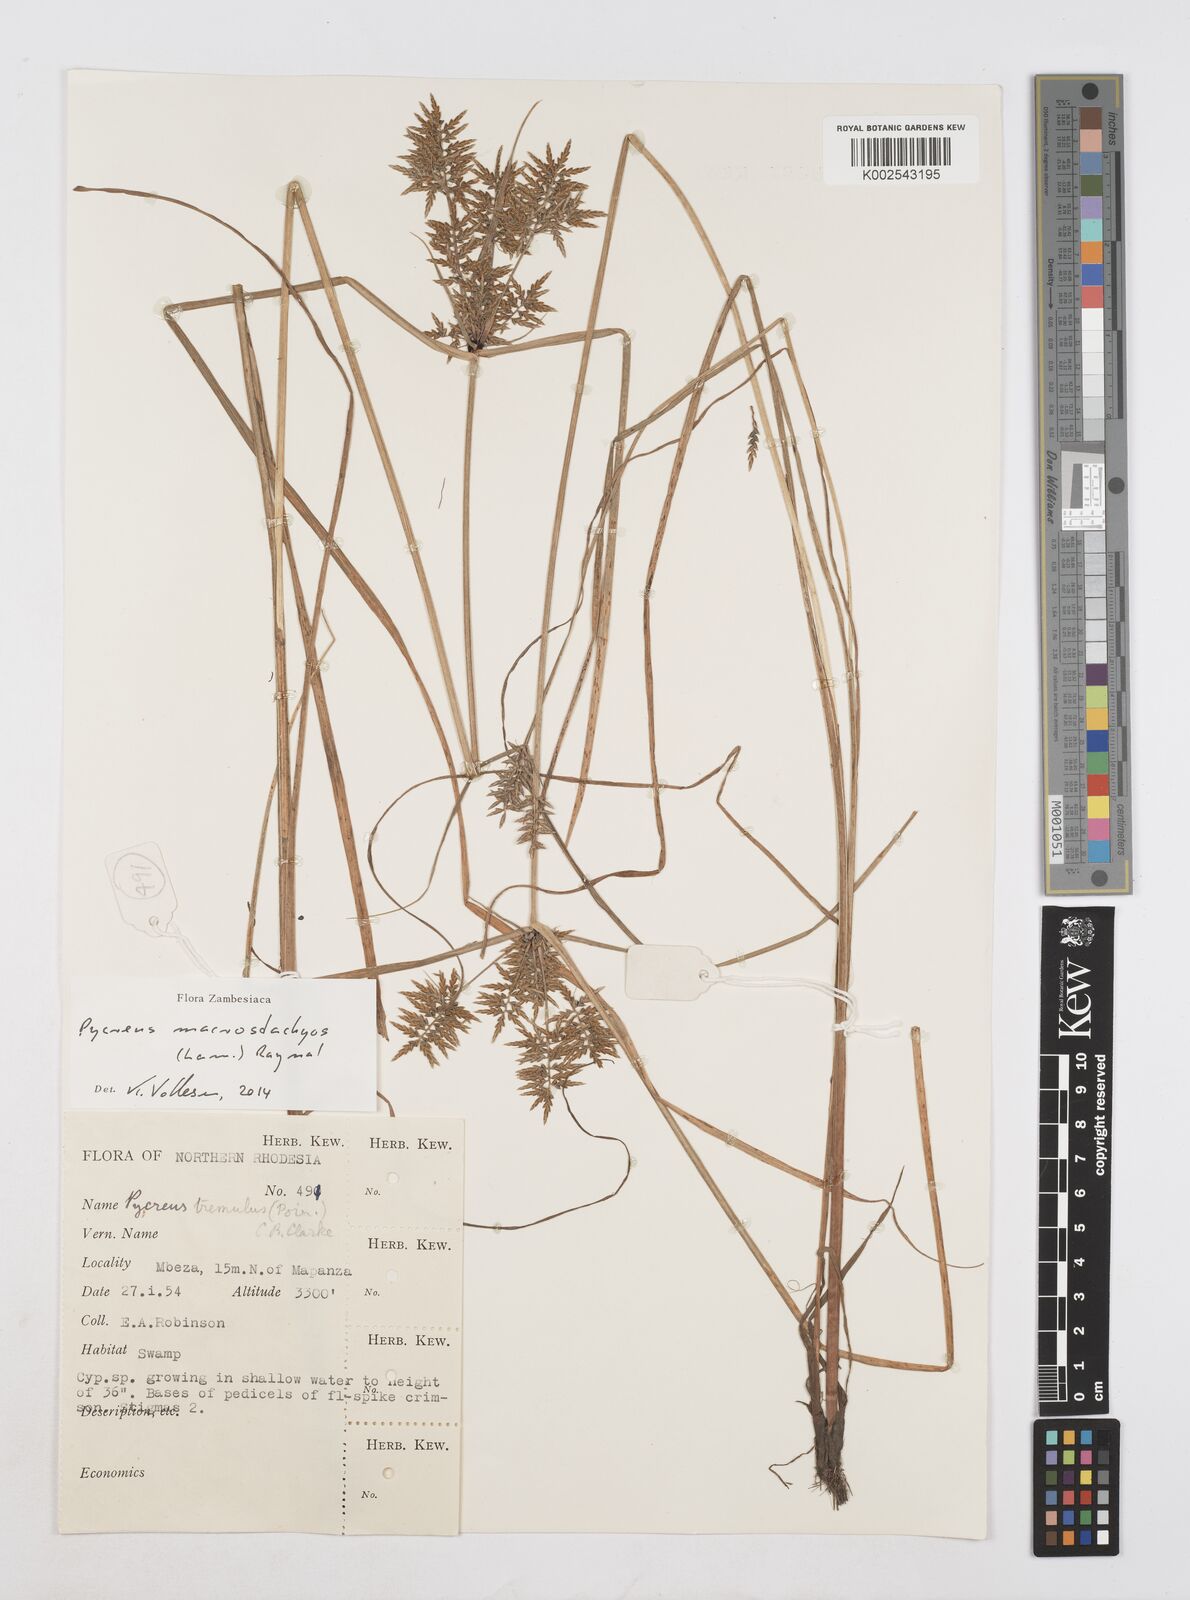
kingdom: Plantae
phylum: Tracheophyta
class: Liliopsida
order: Poales
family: Cyperaceae
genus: Cyperus
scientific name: Cyperus macrostachyos
